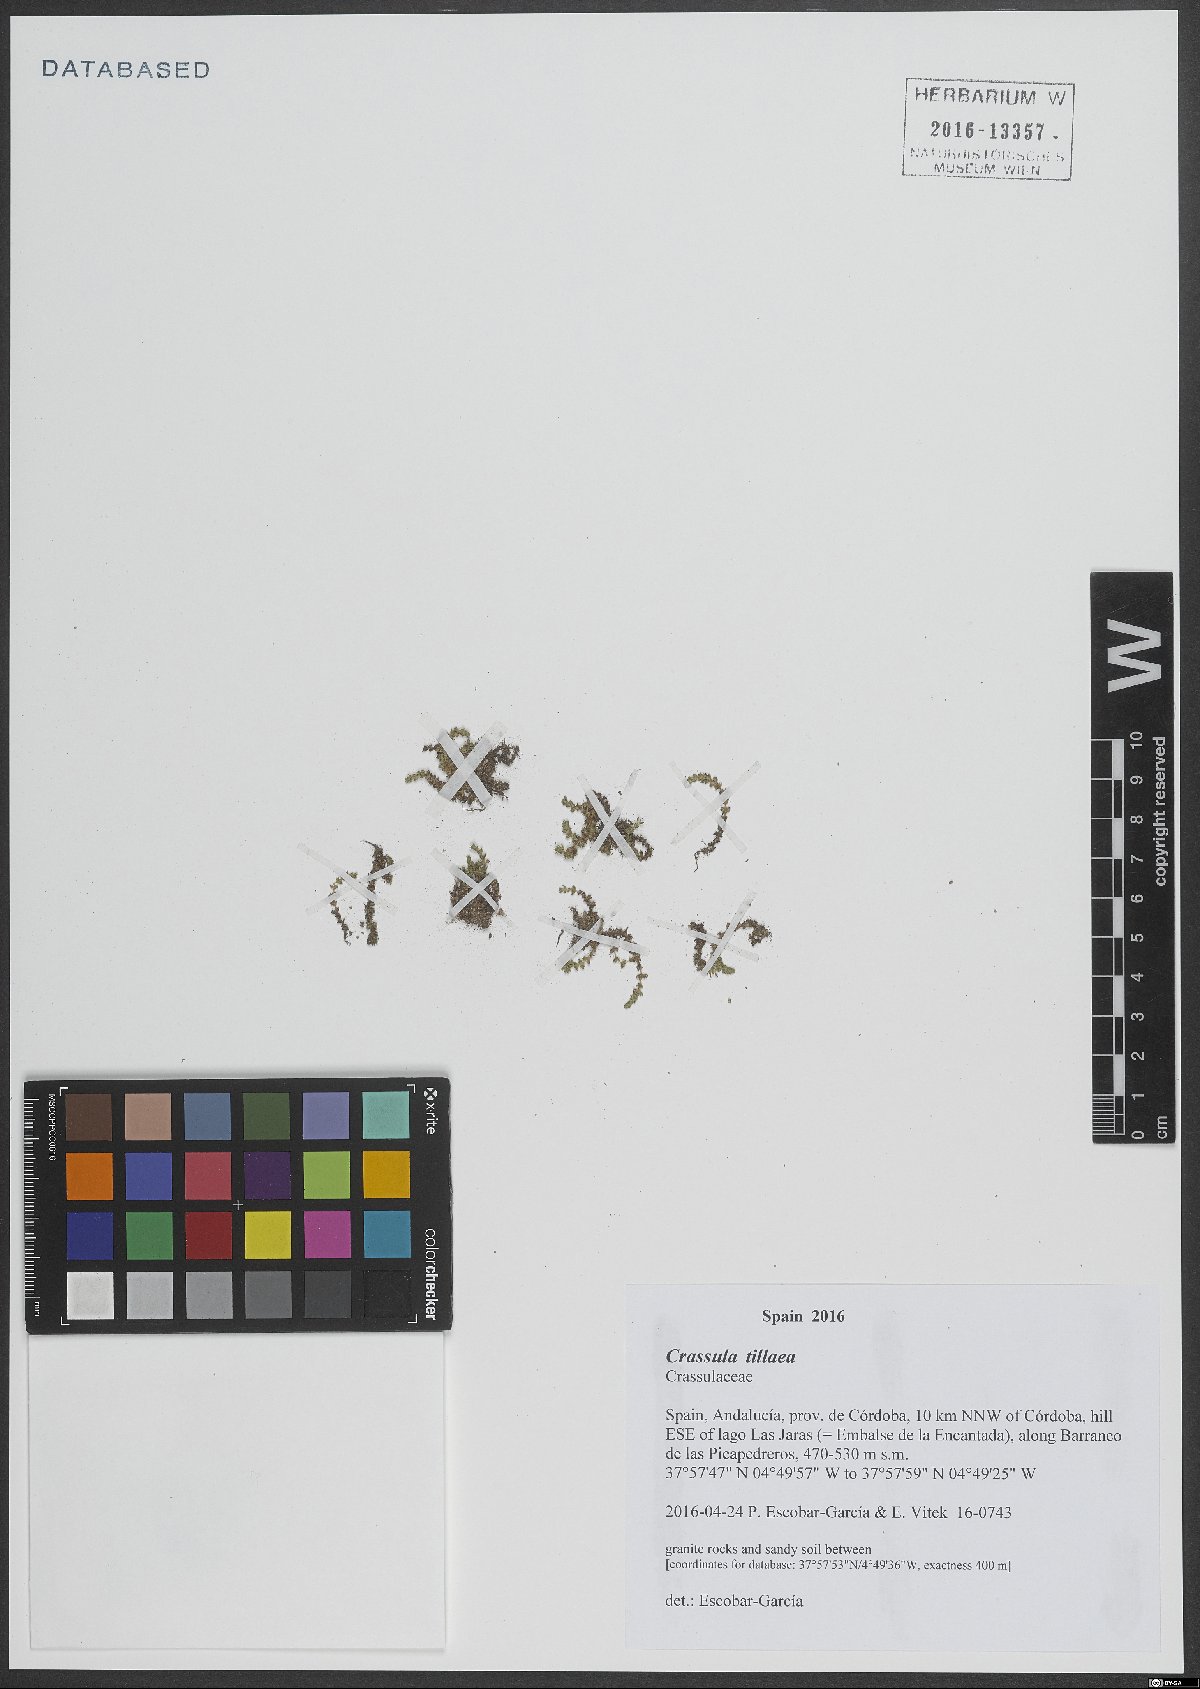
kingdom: Plantae
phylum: Tracheophyta
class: Magnoliopsida
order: Saxifragales
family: Crassulaceae
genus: Crassula
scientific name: Crassula tillaea
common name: Mossy stonecrop
